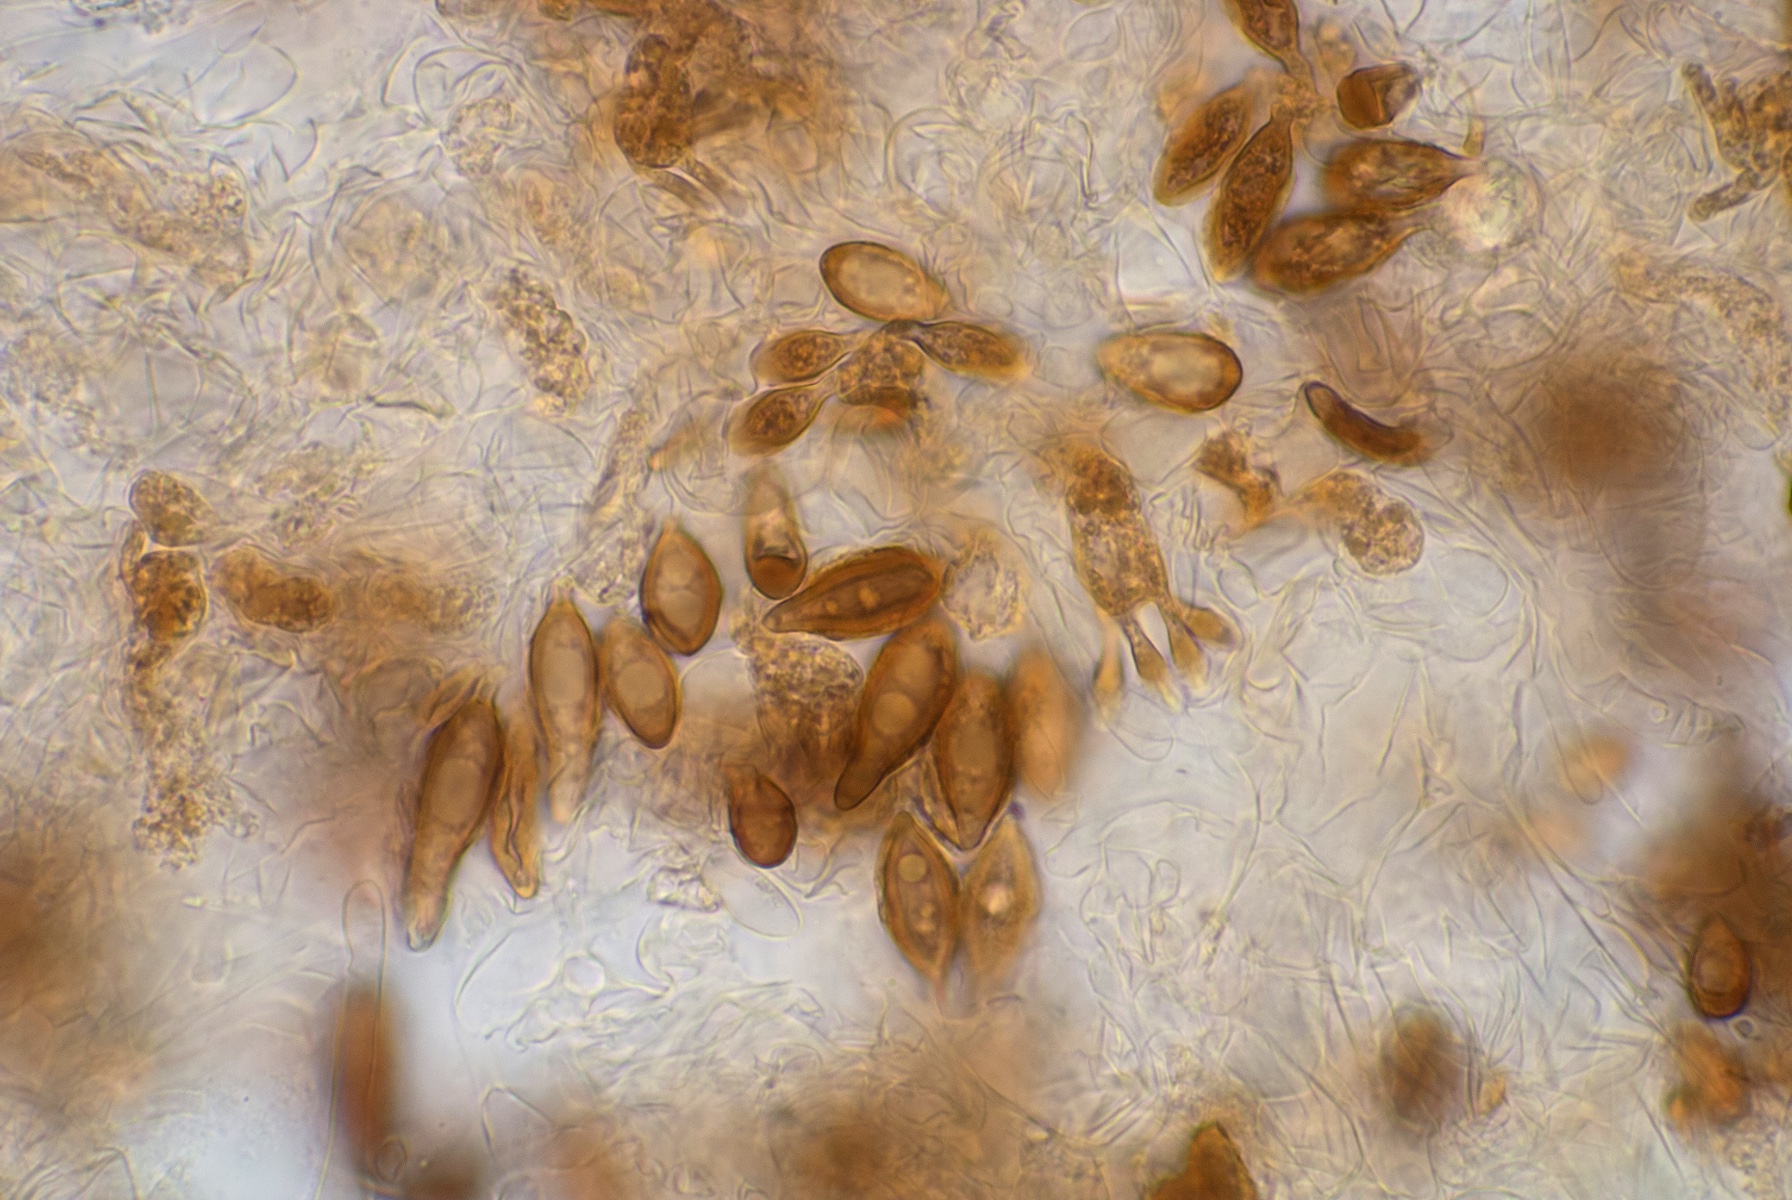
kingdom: Fungi
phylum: Basidiomycota
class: Agaricomycetes
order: Agaricales
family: Hymenogastraceae
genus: Hymenogaster
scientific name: Hymenogaster vulgaris
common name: Common nut truffle
